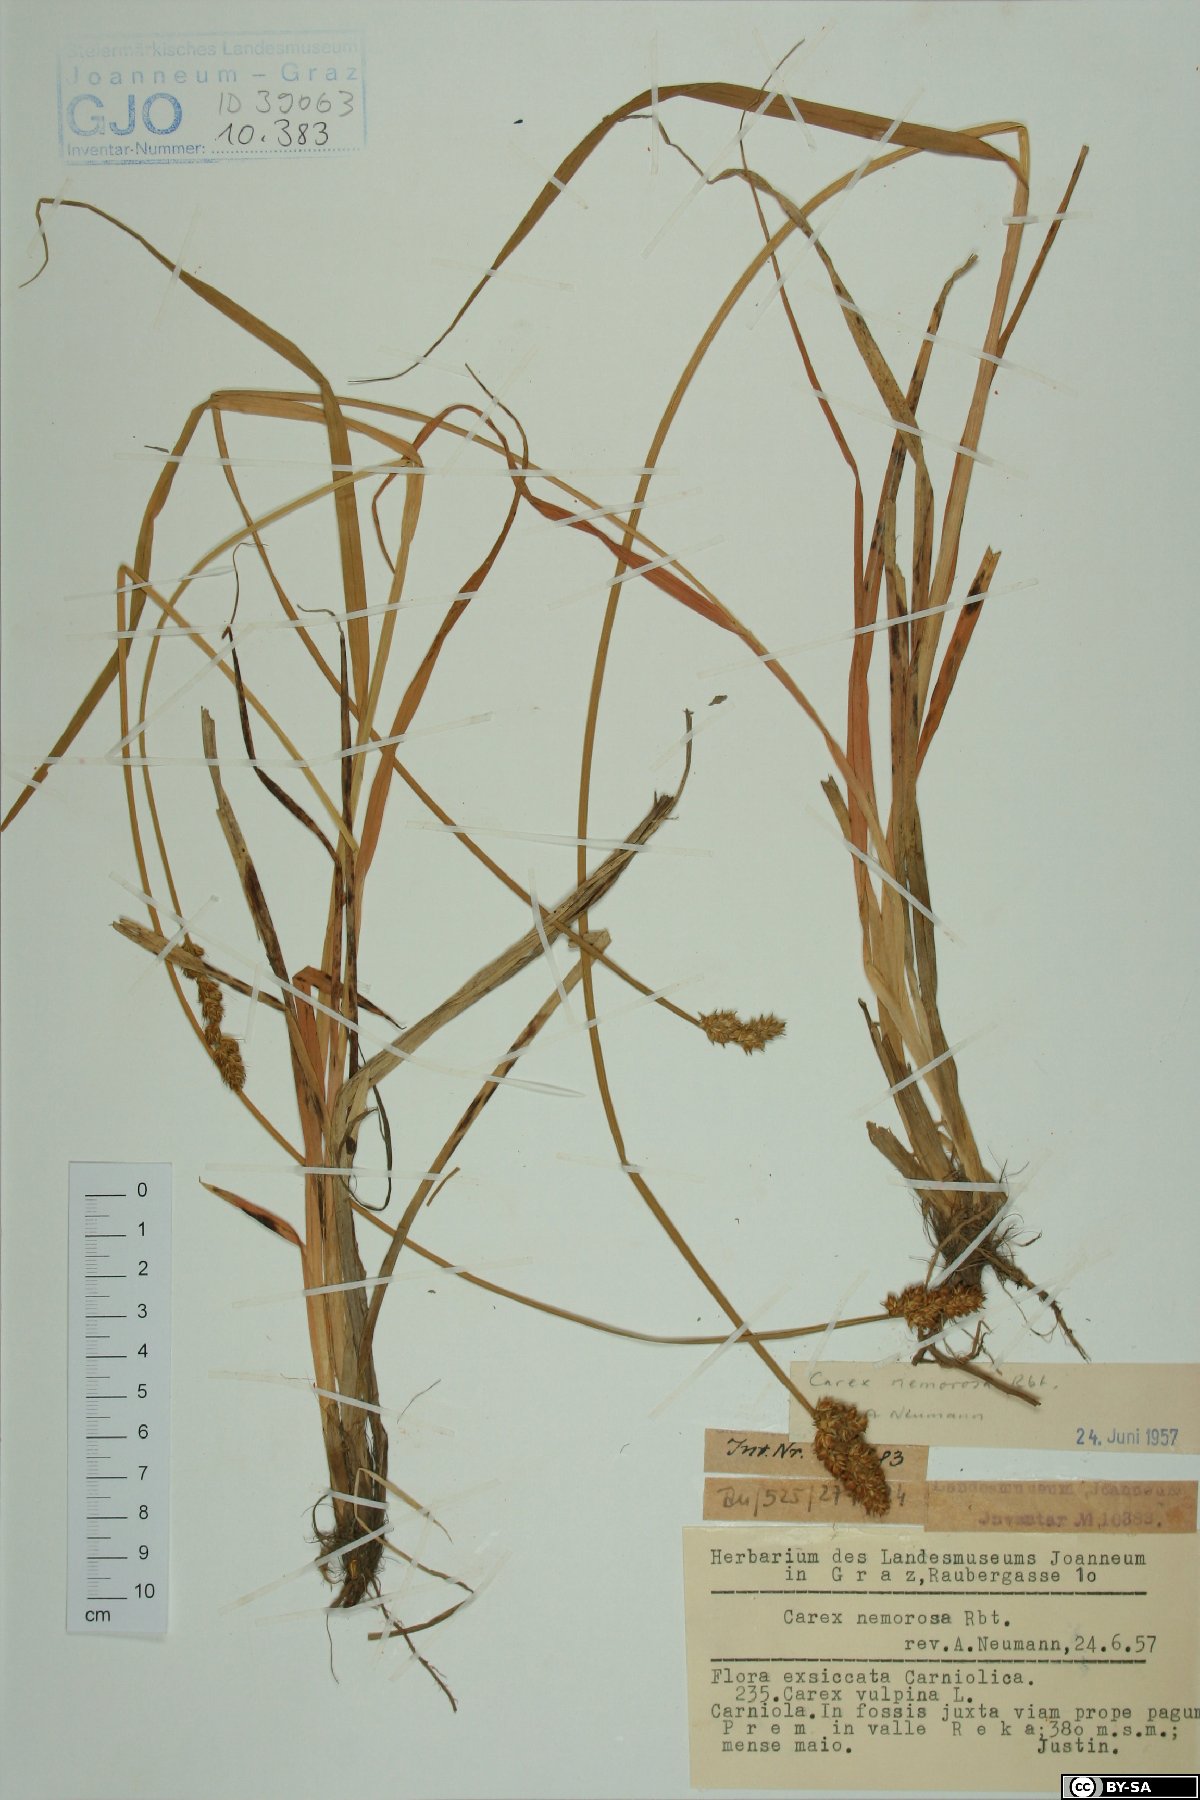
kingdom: Plantae
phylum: Tracheophyta
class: Liliopsida
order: Poales
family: Cyperaceae
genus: Carex
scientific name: Carex otrubae
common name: False fox-sedge
